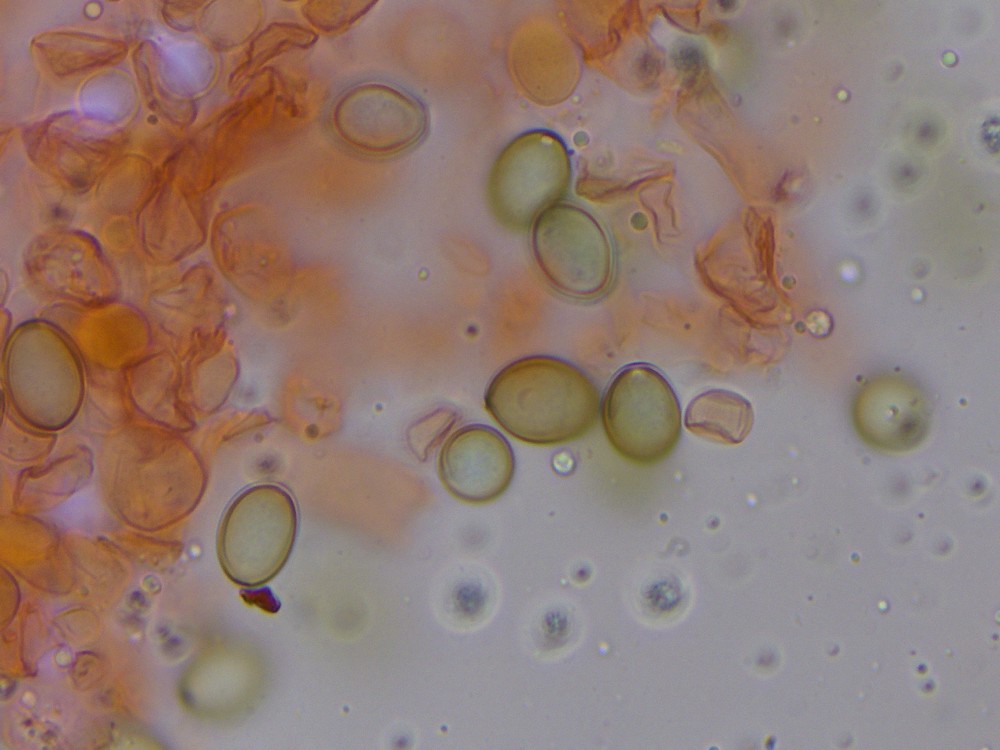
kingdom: Fungi
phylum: Basidiomycota
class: Agaricomycetes
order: Agaricales
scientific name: Agaricales
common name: champignonordenen
